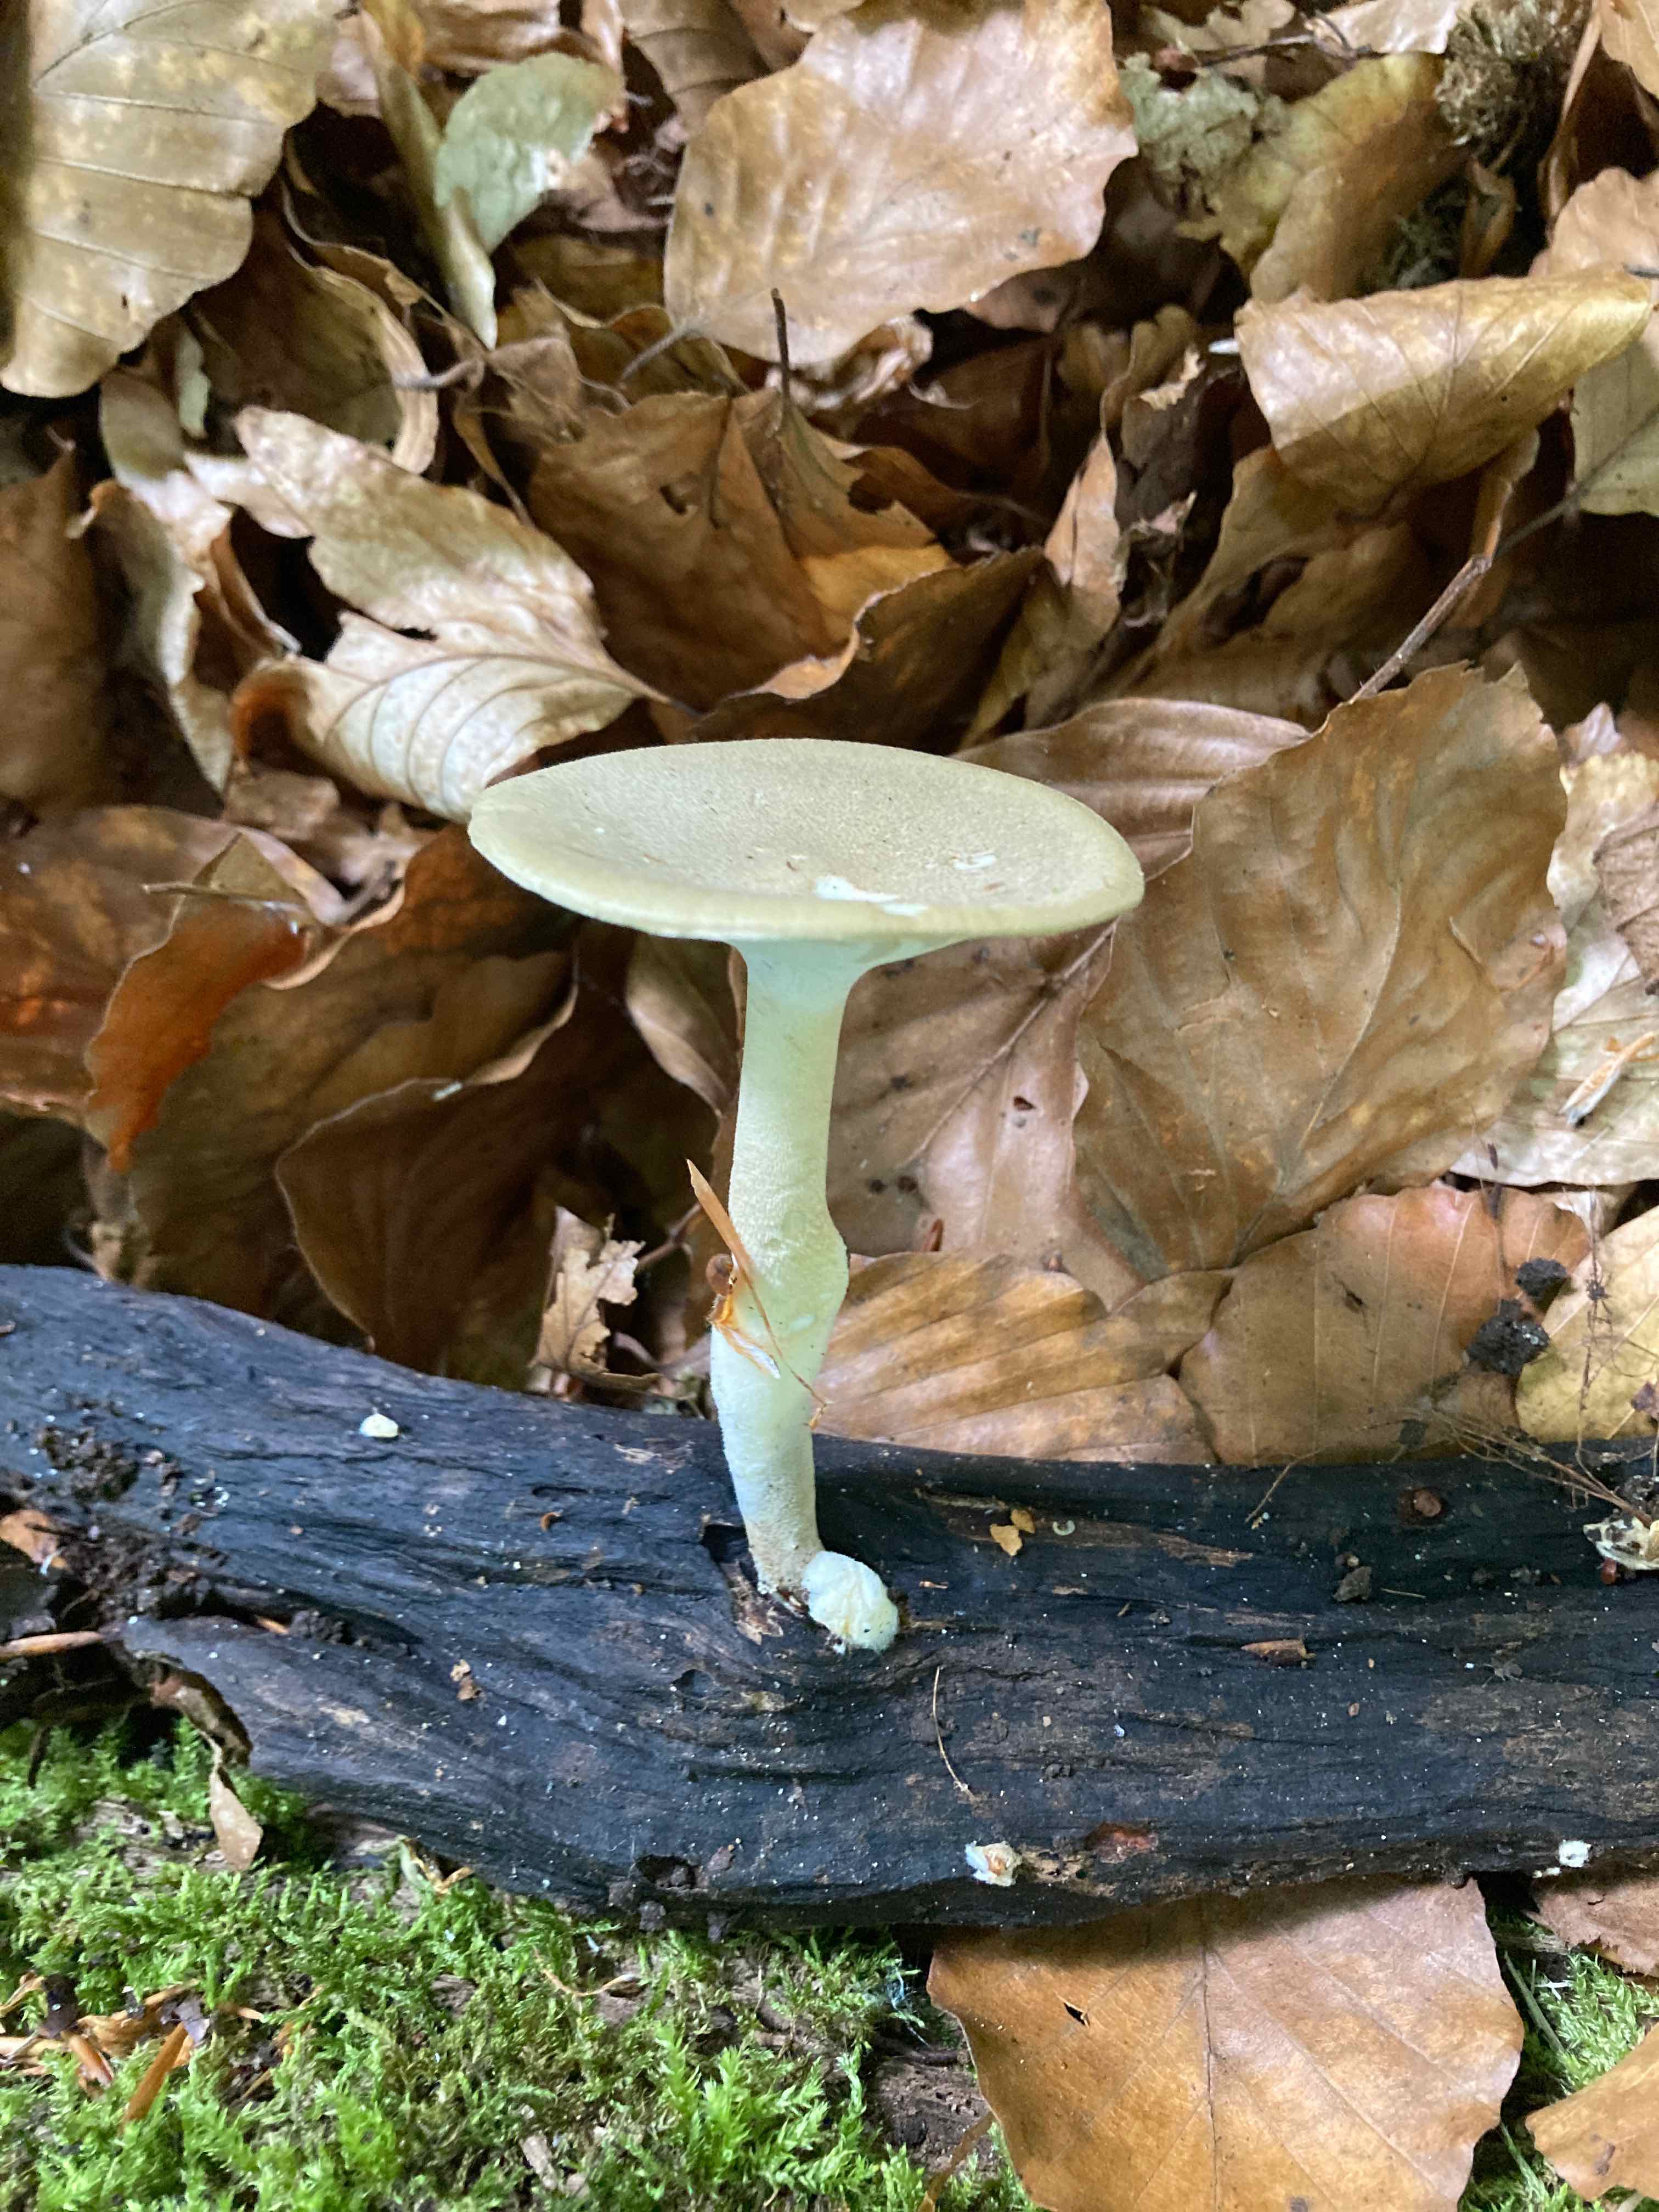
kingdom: Fungi
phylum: Basidiomycota
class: Agaricomycetes
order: Polyporales
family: Polyporaceae
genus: Lentinus
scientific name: Lentinus substrictus
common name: forårs-stilkporesvamp
